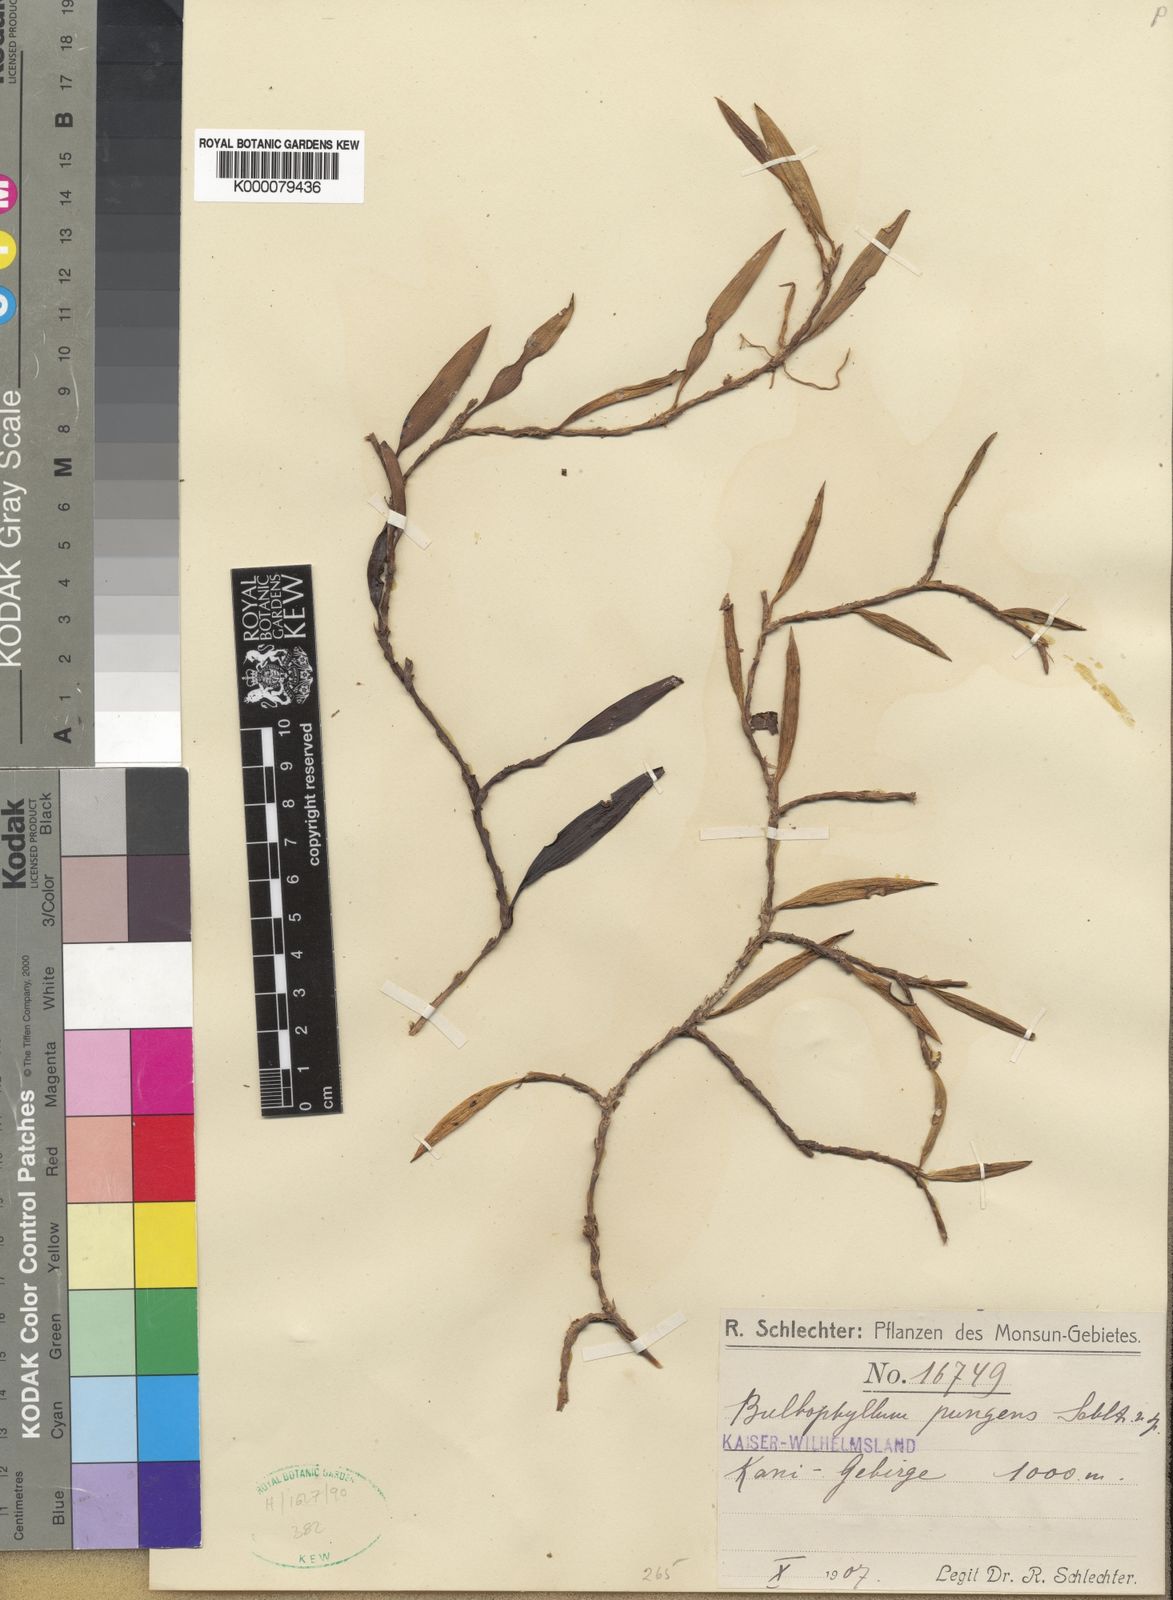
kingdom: Plantae
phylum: Tracheophyta
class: Liliopsida
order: Asparagales
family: Orchidaceae
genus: Bulbophyllum
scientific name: Bulbophyllum pungens
